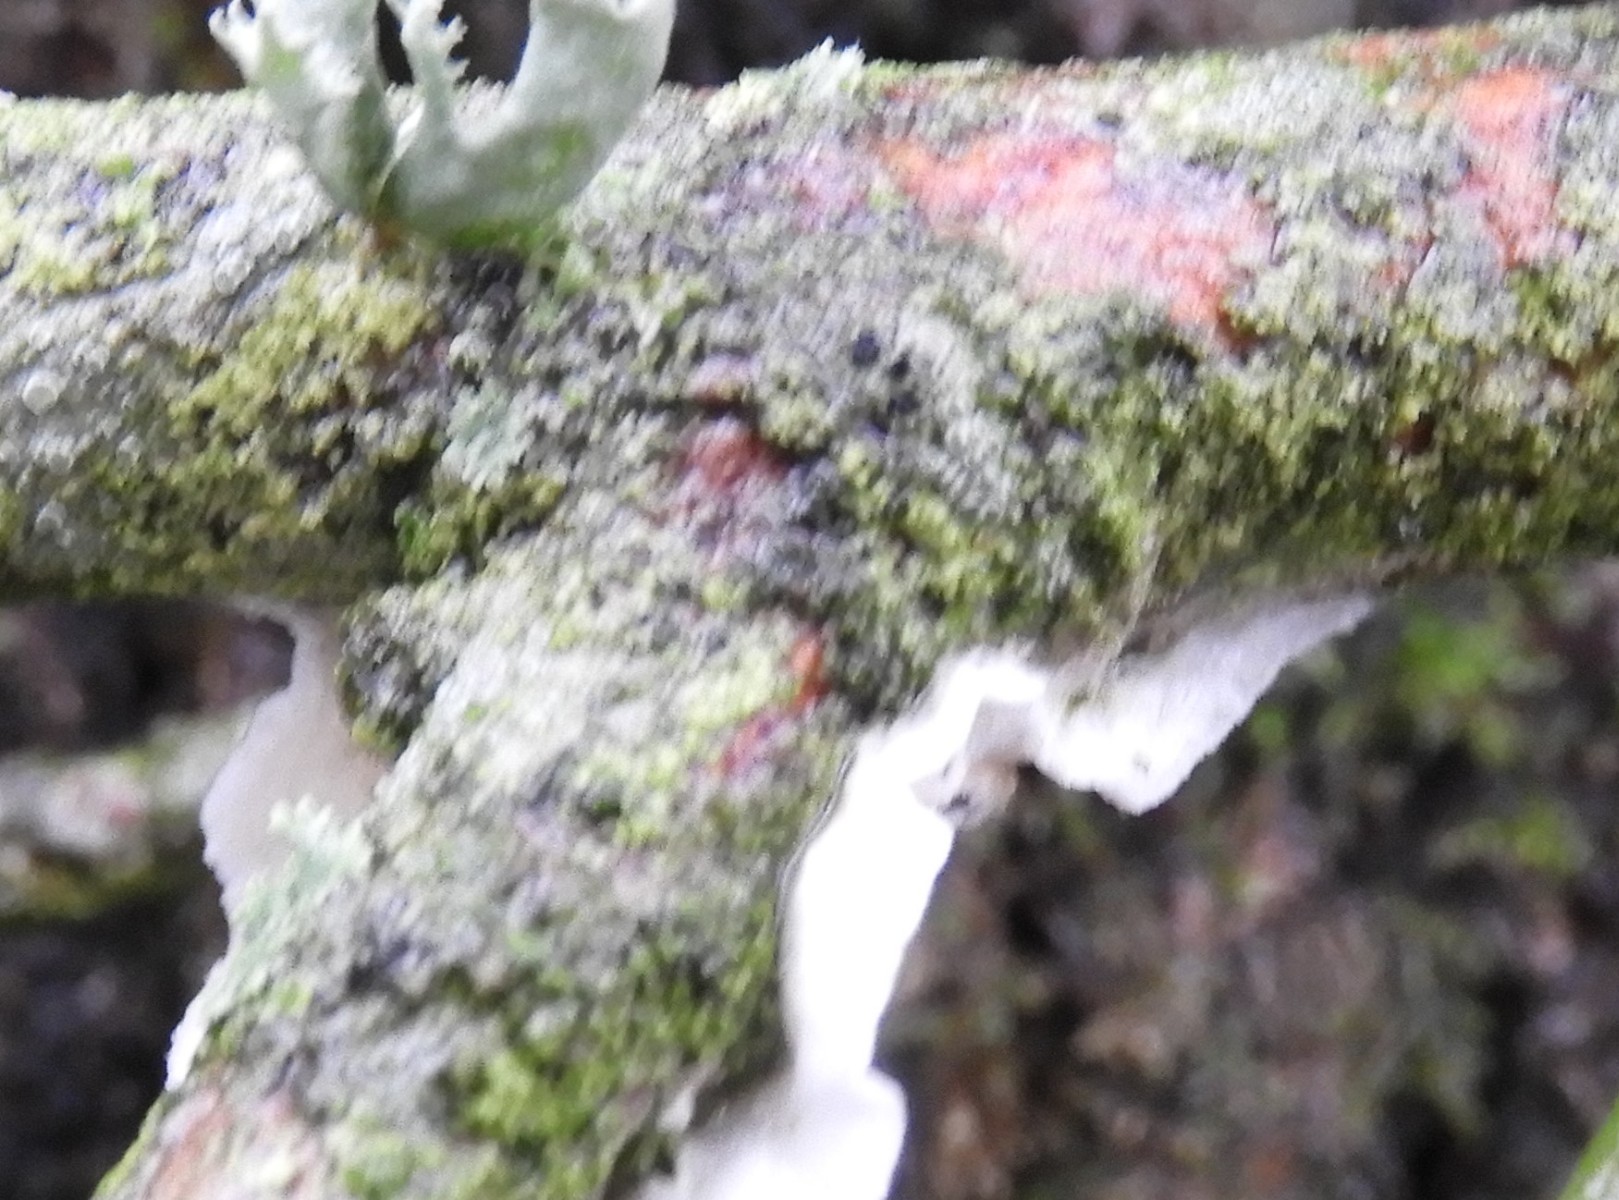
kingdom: Fungi
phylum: Basidiomycota
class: Agaricomycetes
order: Polyporales
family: Irpicaceae
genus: Byssomerulius
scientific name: Byssomerulius corium
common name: læder-åresvamp
